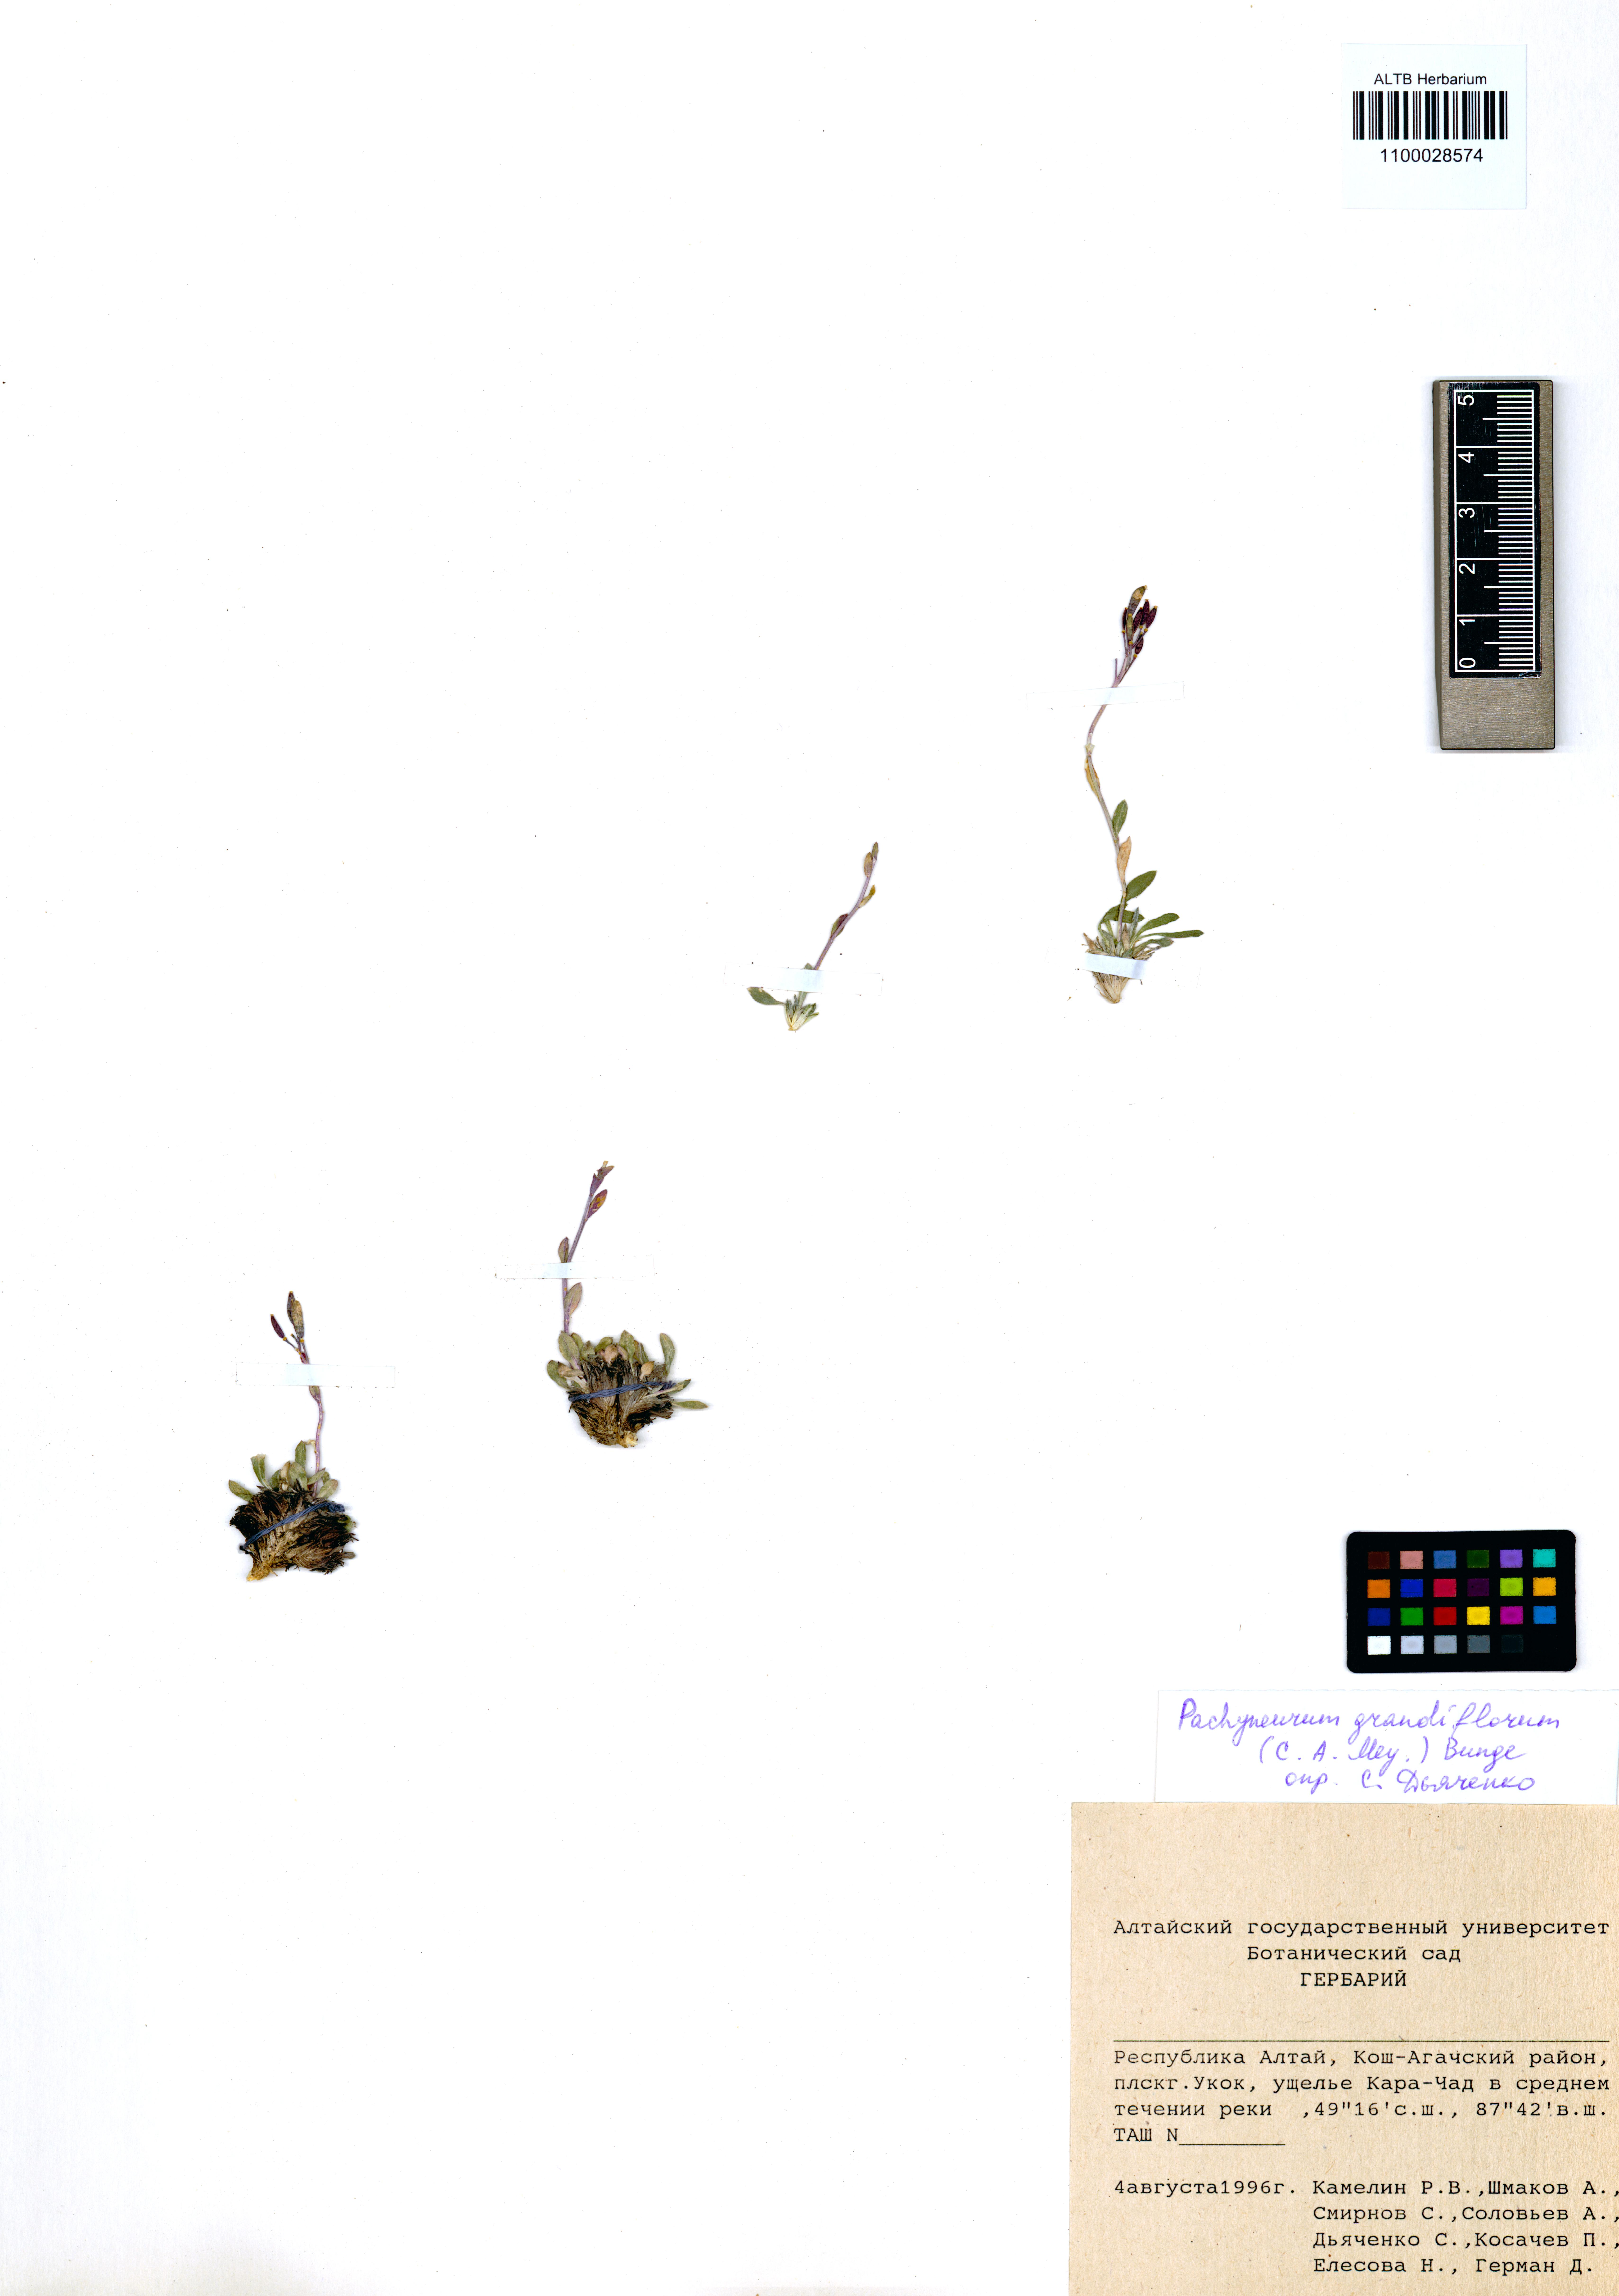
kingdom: Plantae
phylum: Tracheophyta
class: Magnoliopsida
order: Brassicales
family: Brassicaceae
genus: Pachyneurum
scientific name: Pachyneurum grandiflorum
